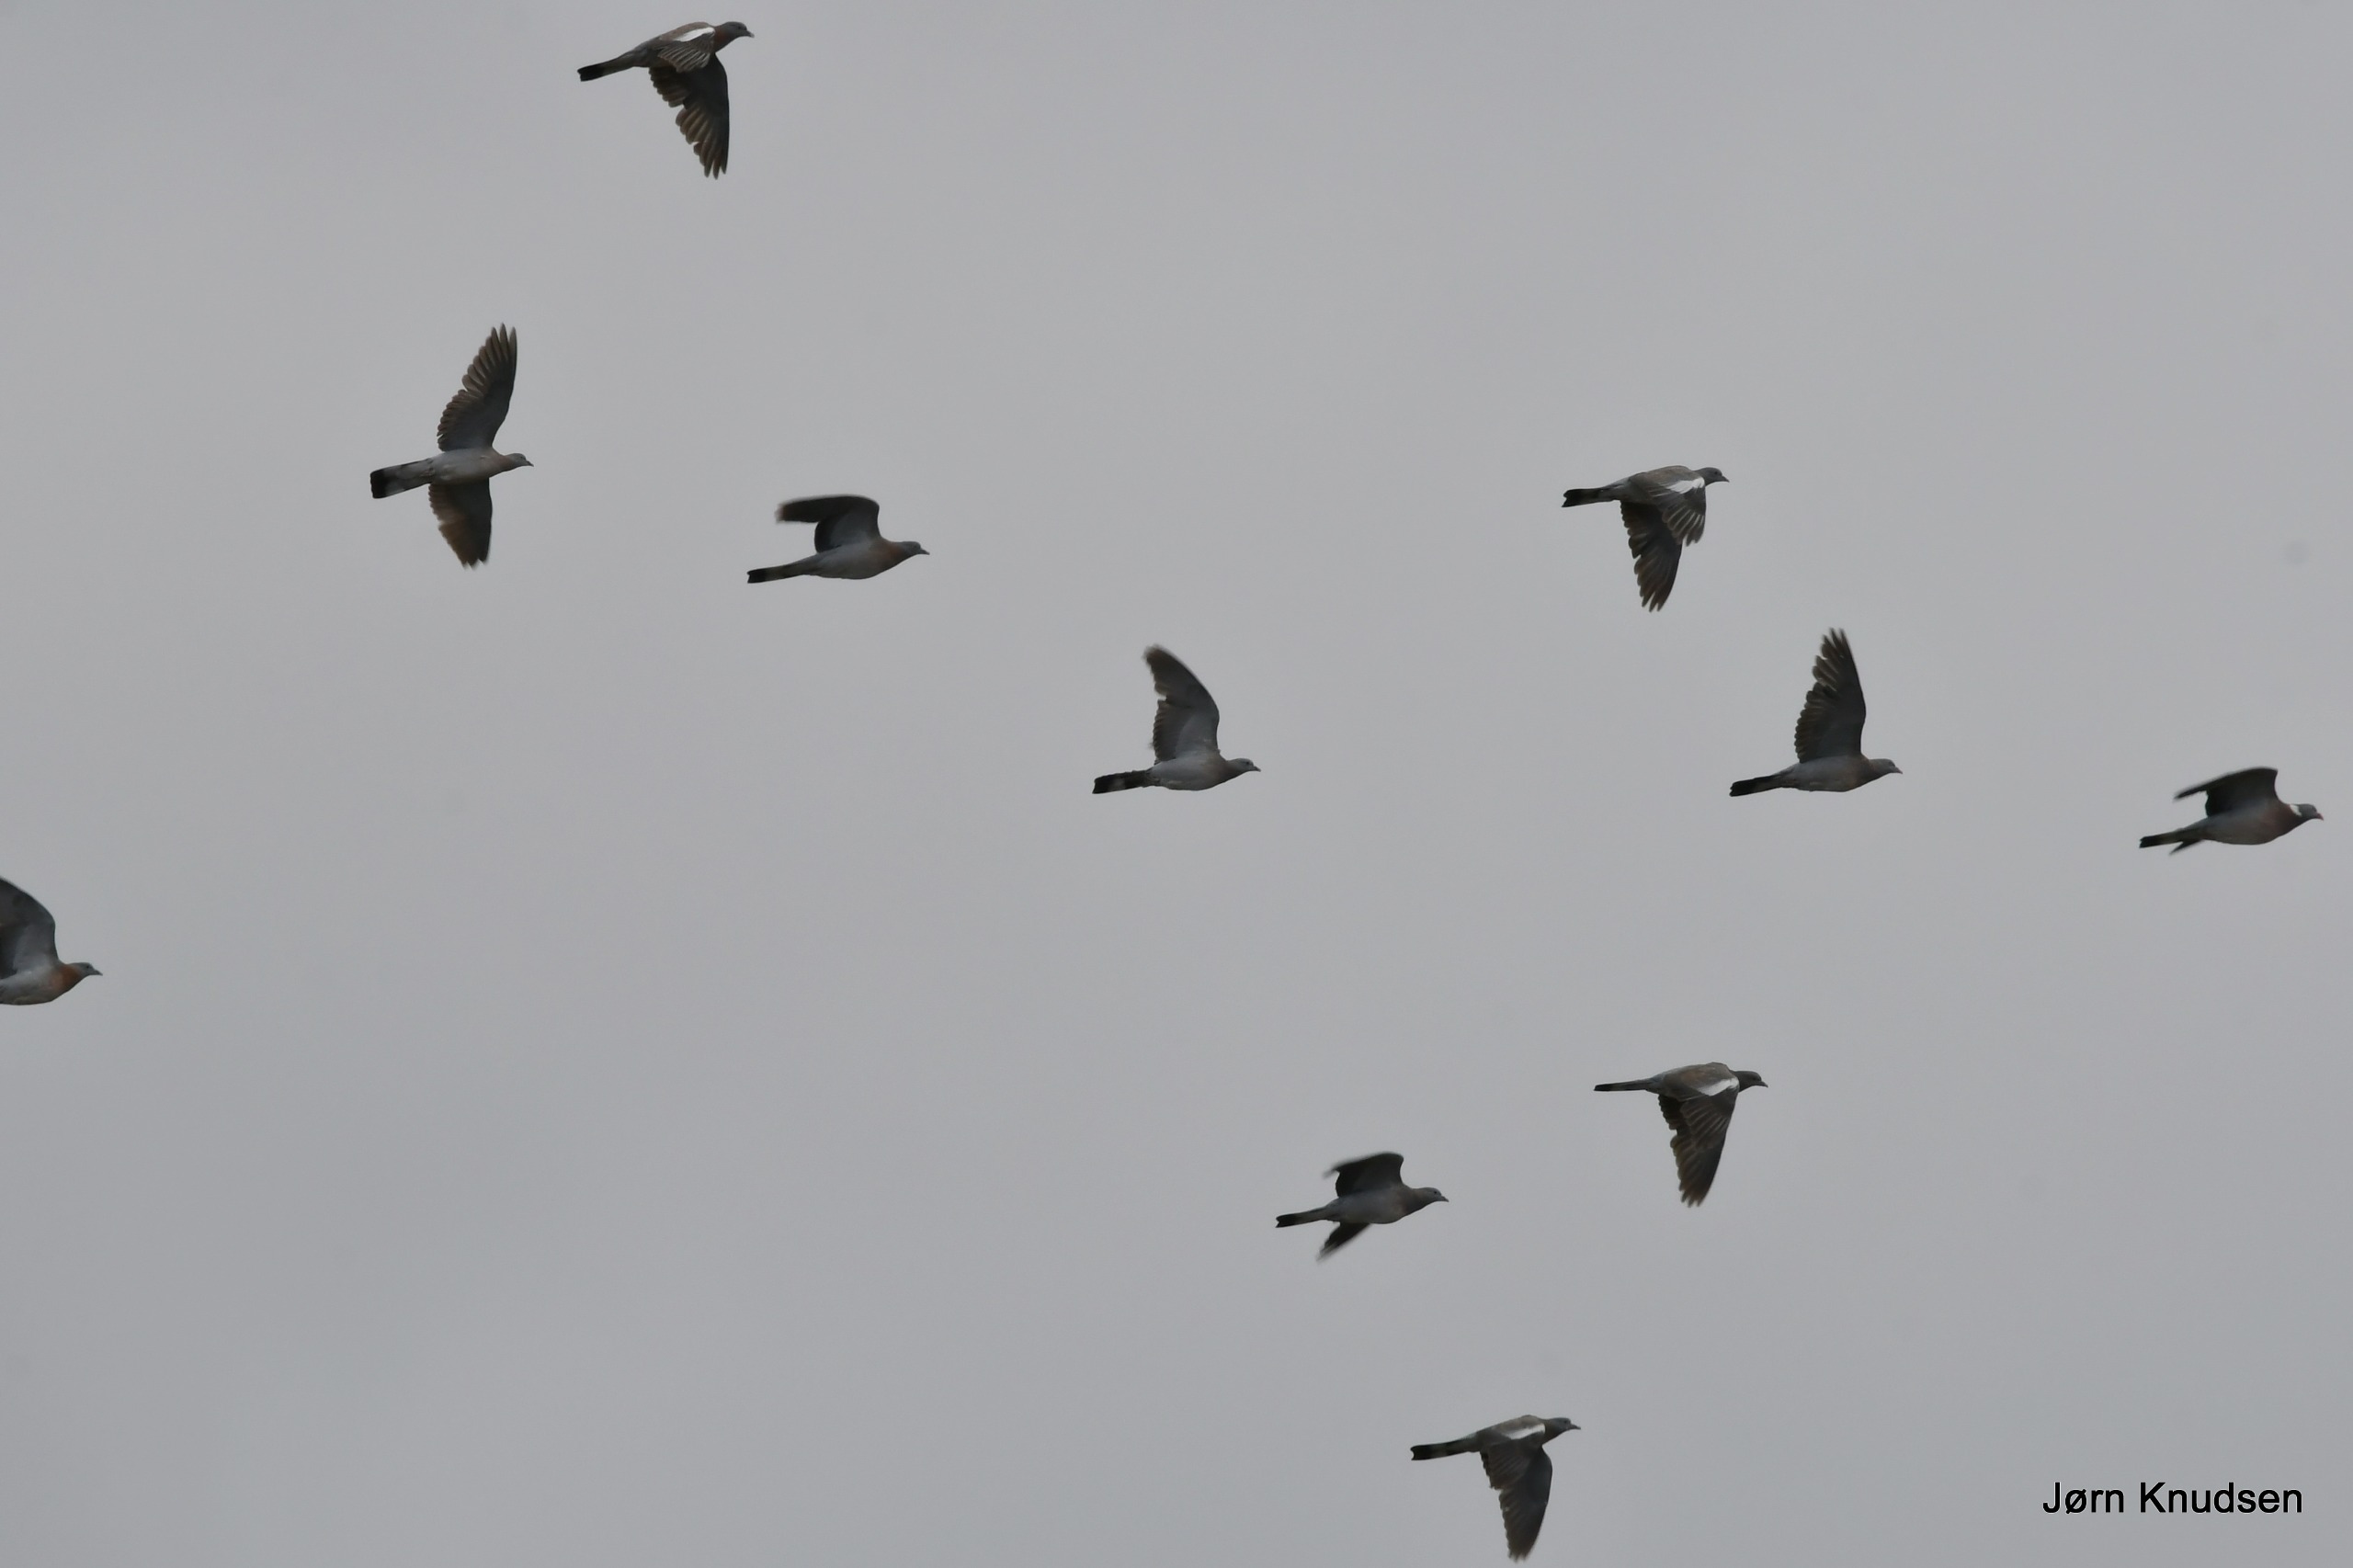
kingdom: Animalia
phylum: Chordata
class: Aves
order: Columbiformes
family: Columbidae
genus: Columba
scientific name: Columba palumbus
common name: Ringdue
